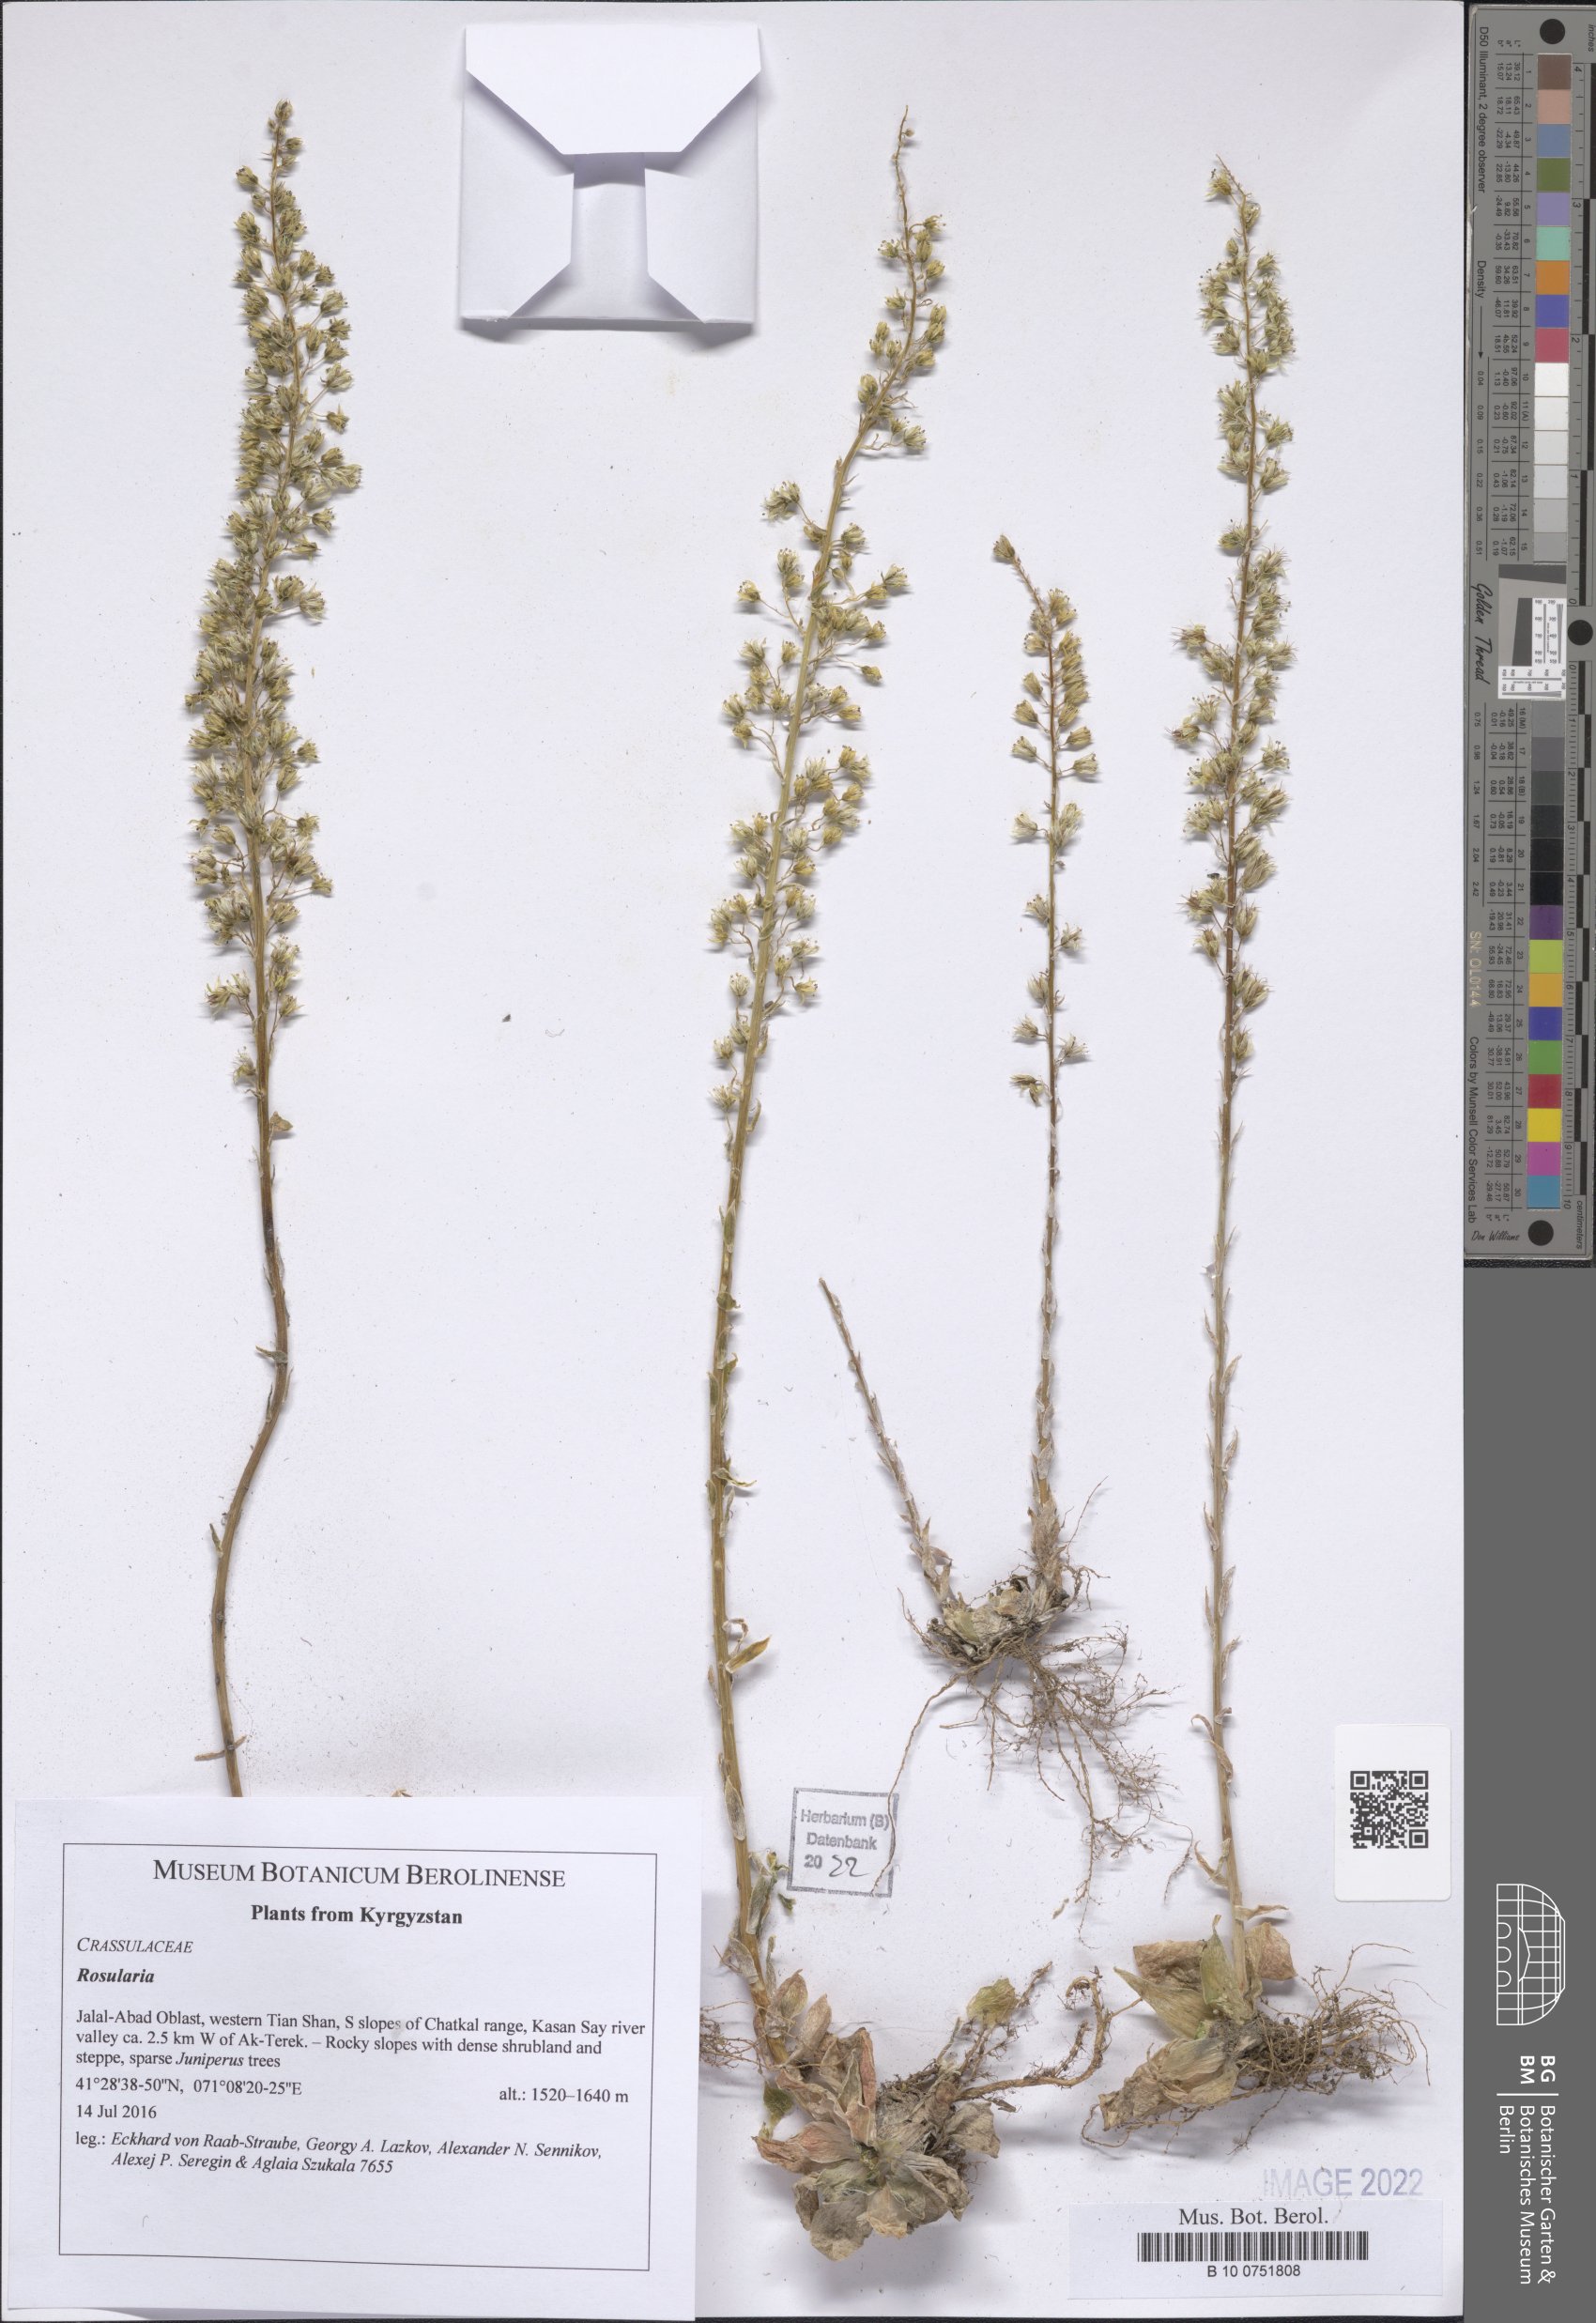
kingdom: Plantae
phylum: Tracheophyta
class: Magnoliopsida
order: Saxifragales
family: Crassulaceae
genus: Rosularia
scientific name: Rosularia
